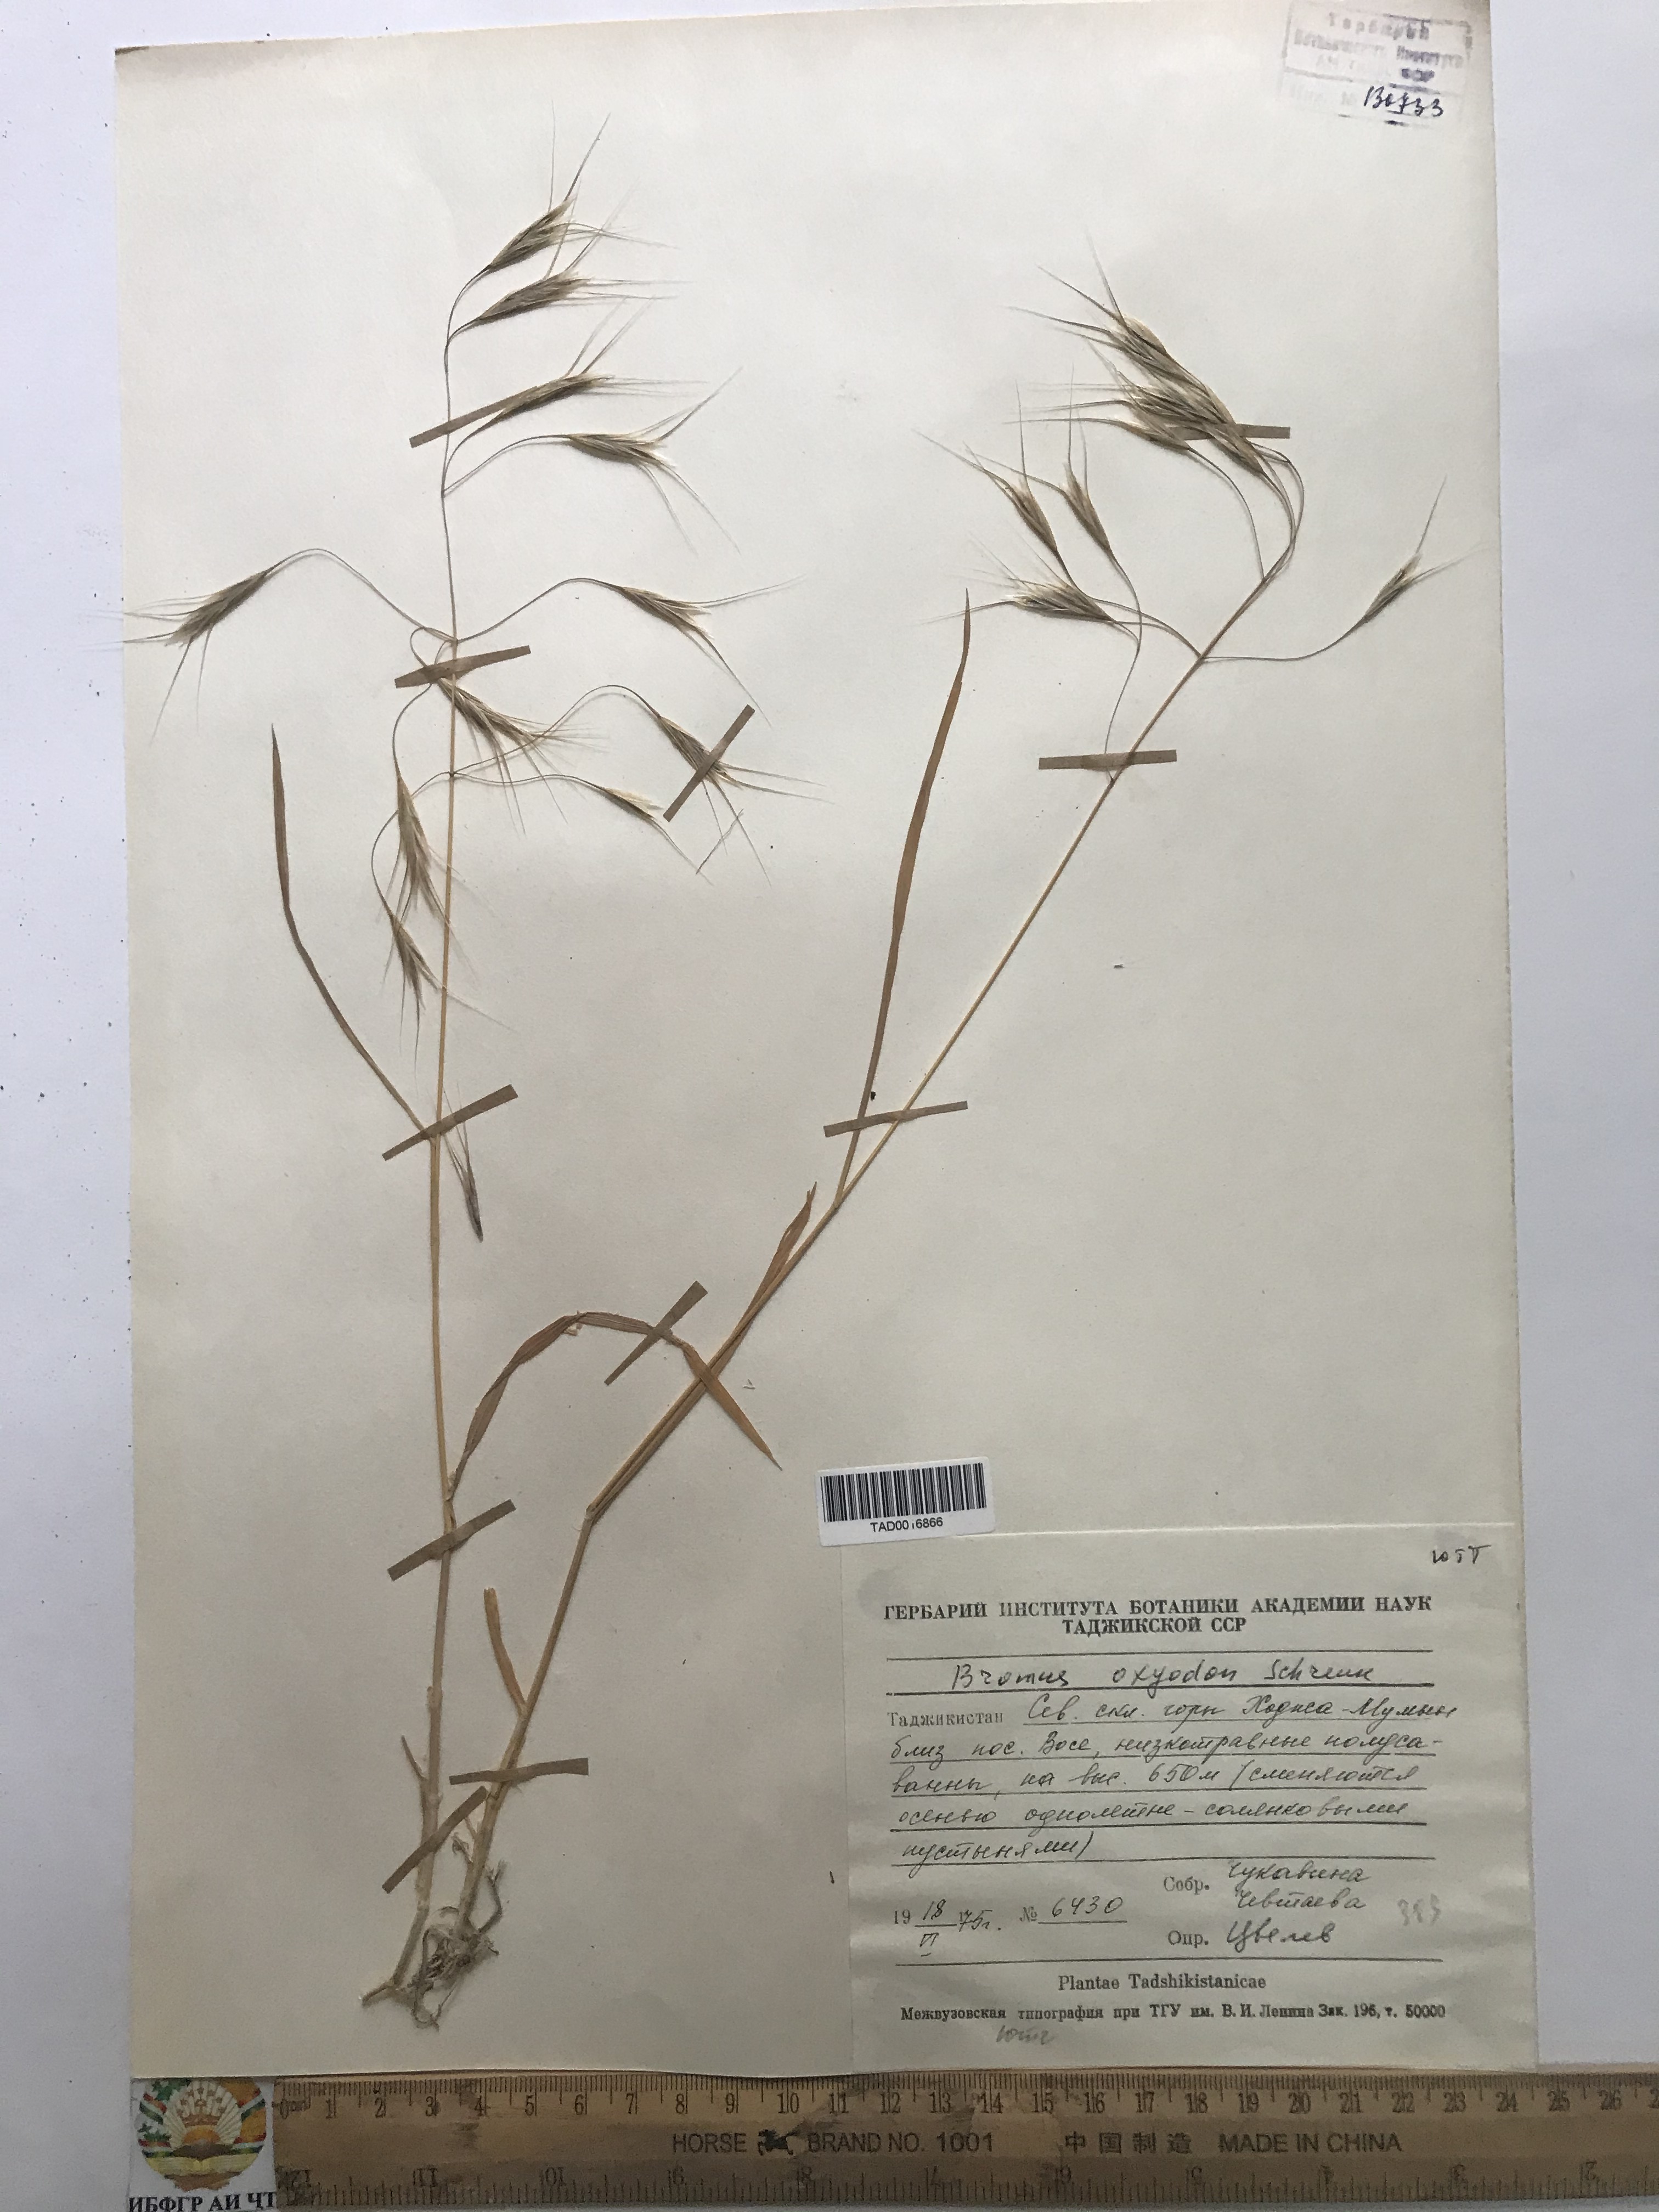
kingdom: Plantae
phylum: Tracheophyta
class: Liliopsida
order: Poales
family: Poaceae
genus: Bromus
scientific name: Bromus oxyodon
